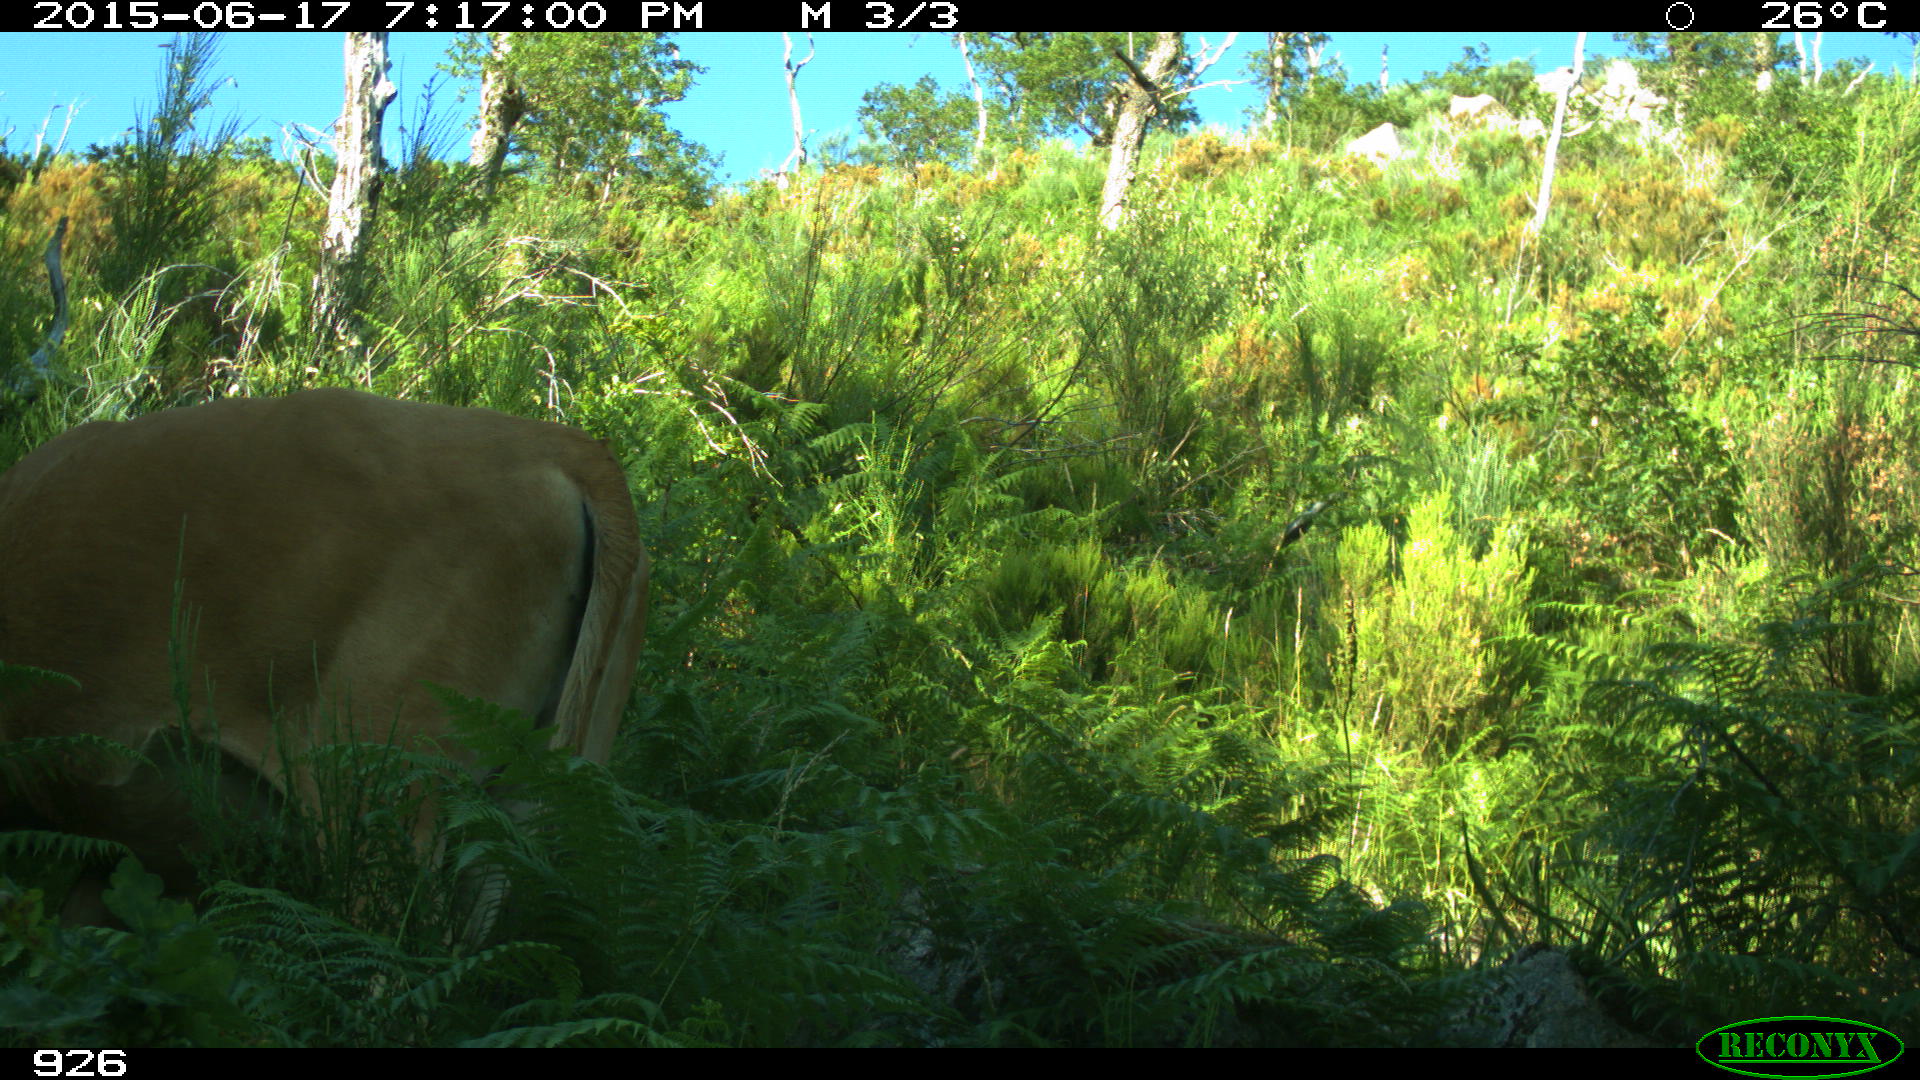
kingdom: Animalia
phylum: Chordata
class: Mammalia
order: Artiodactyla
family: Bovidae
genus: Bos
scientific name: Bos taurus
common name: Domesticated cattle
